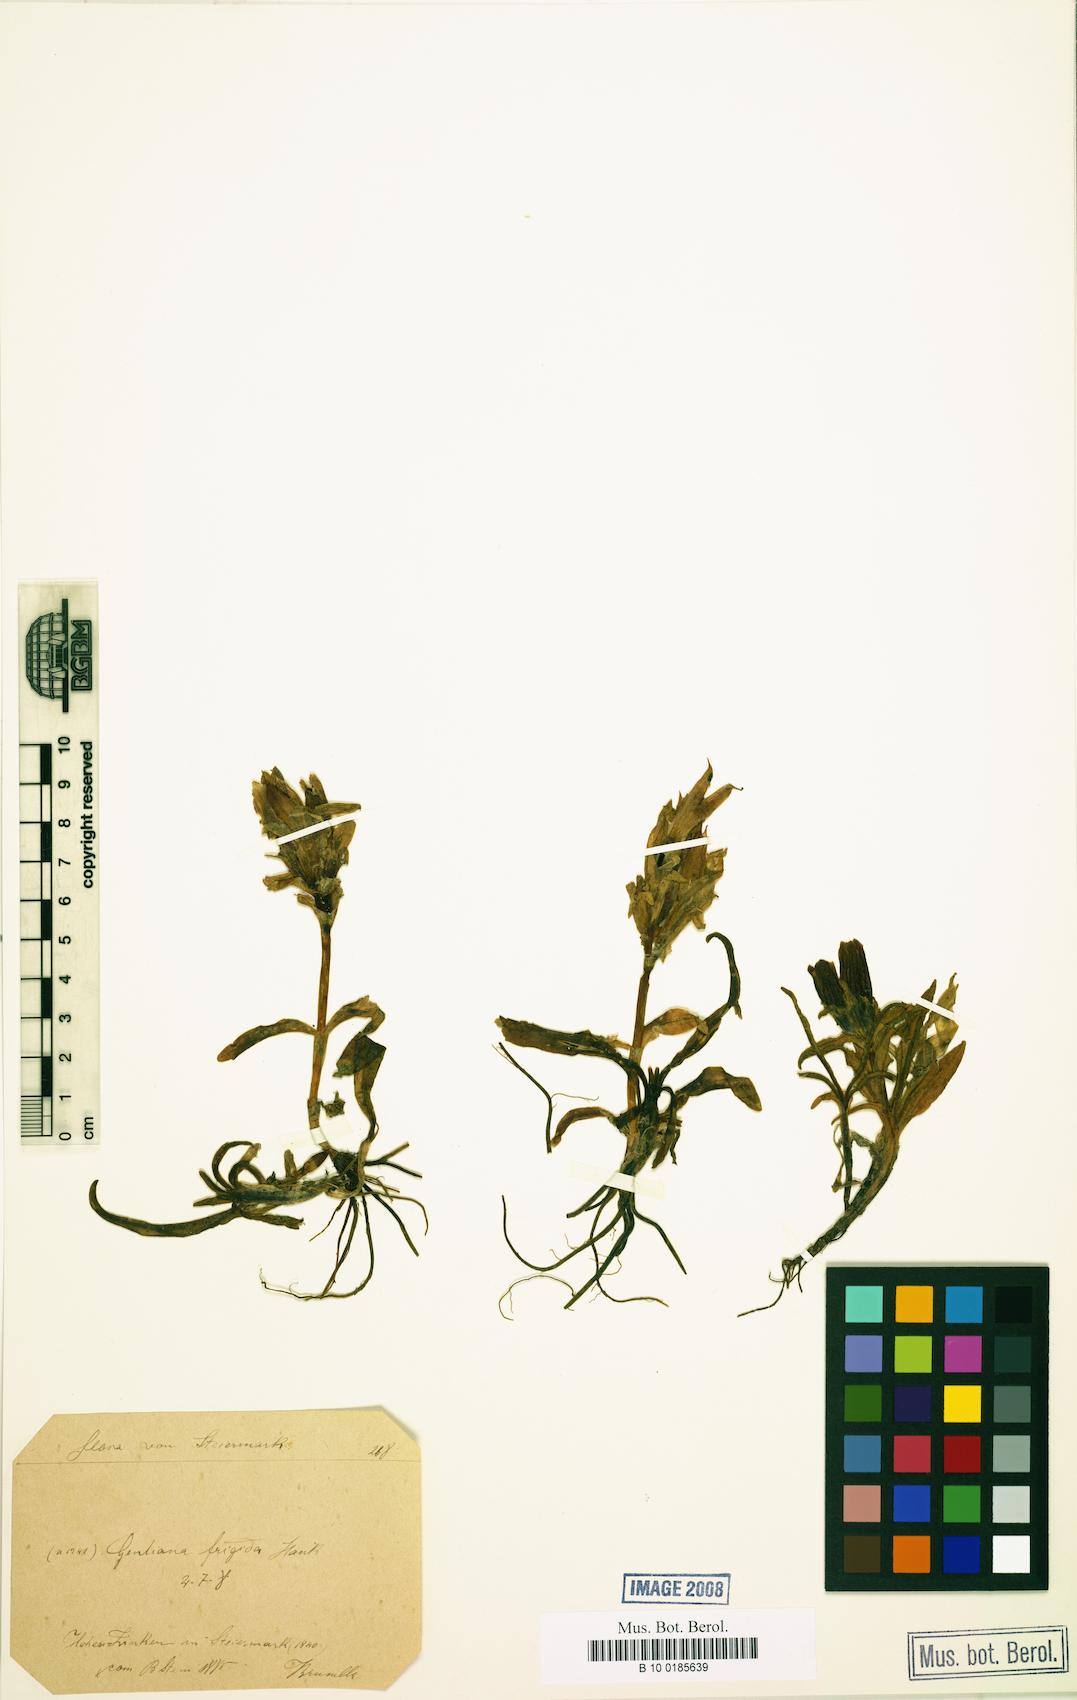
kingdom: Plantae
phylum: Tracheophyta
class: Magnoliopsida
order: Gentianales
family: Gentianaceae
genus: Gentiana
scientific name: Gentiana frigida
